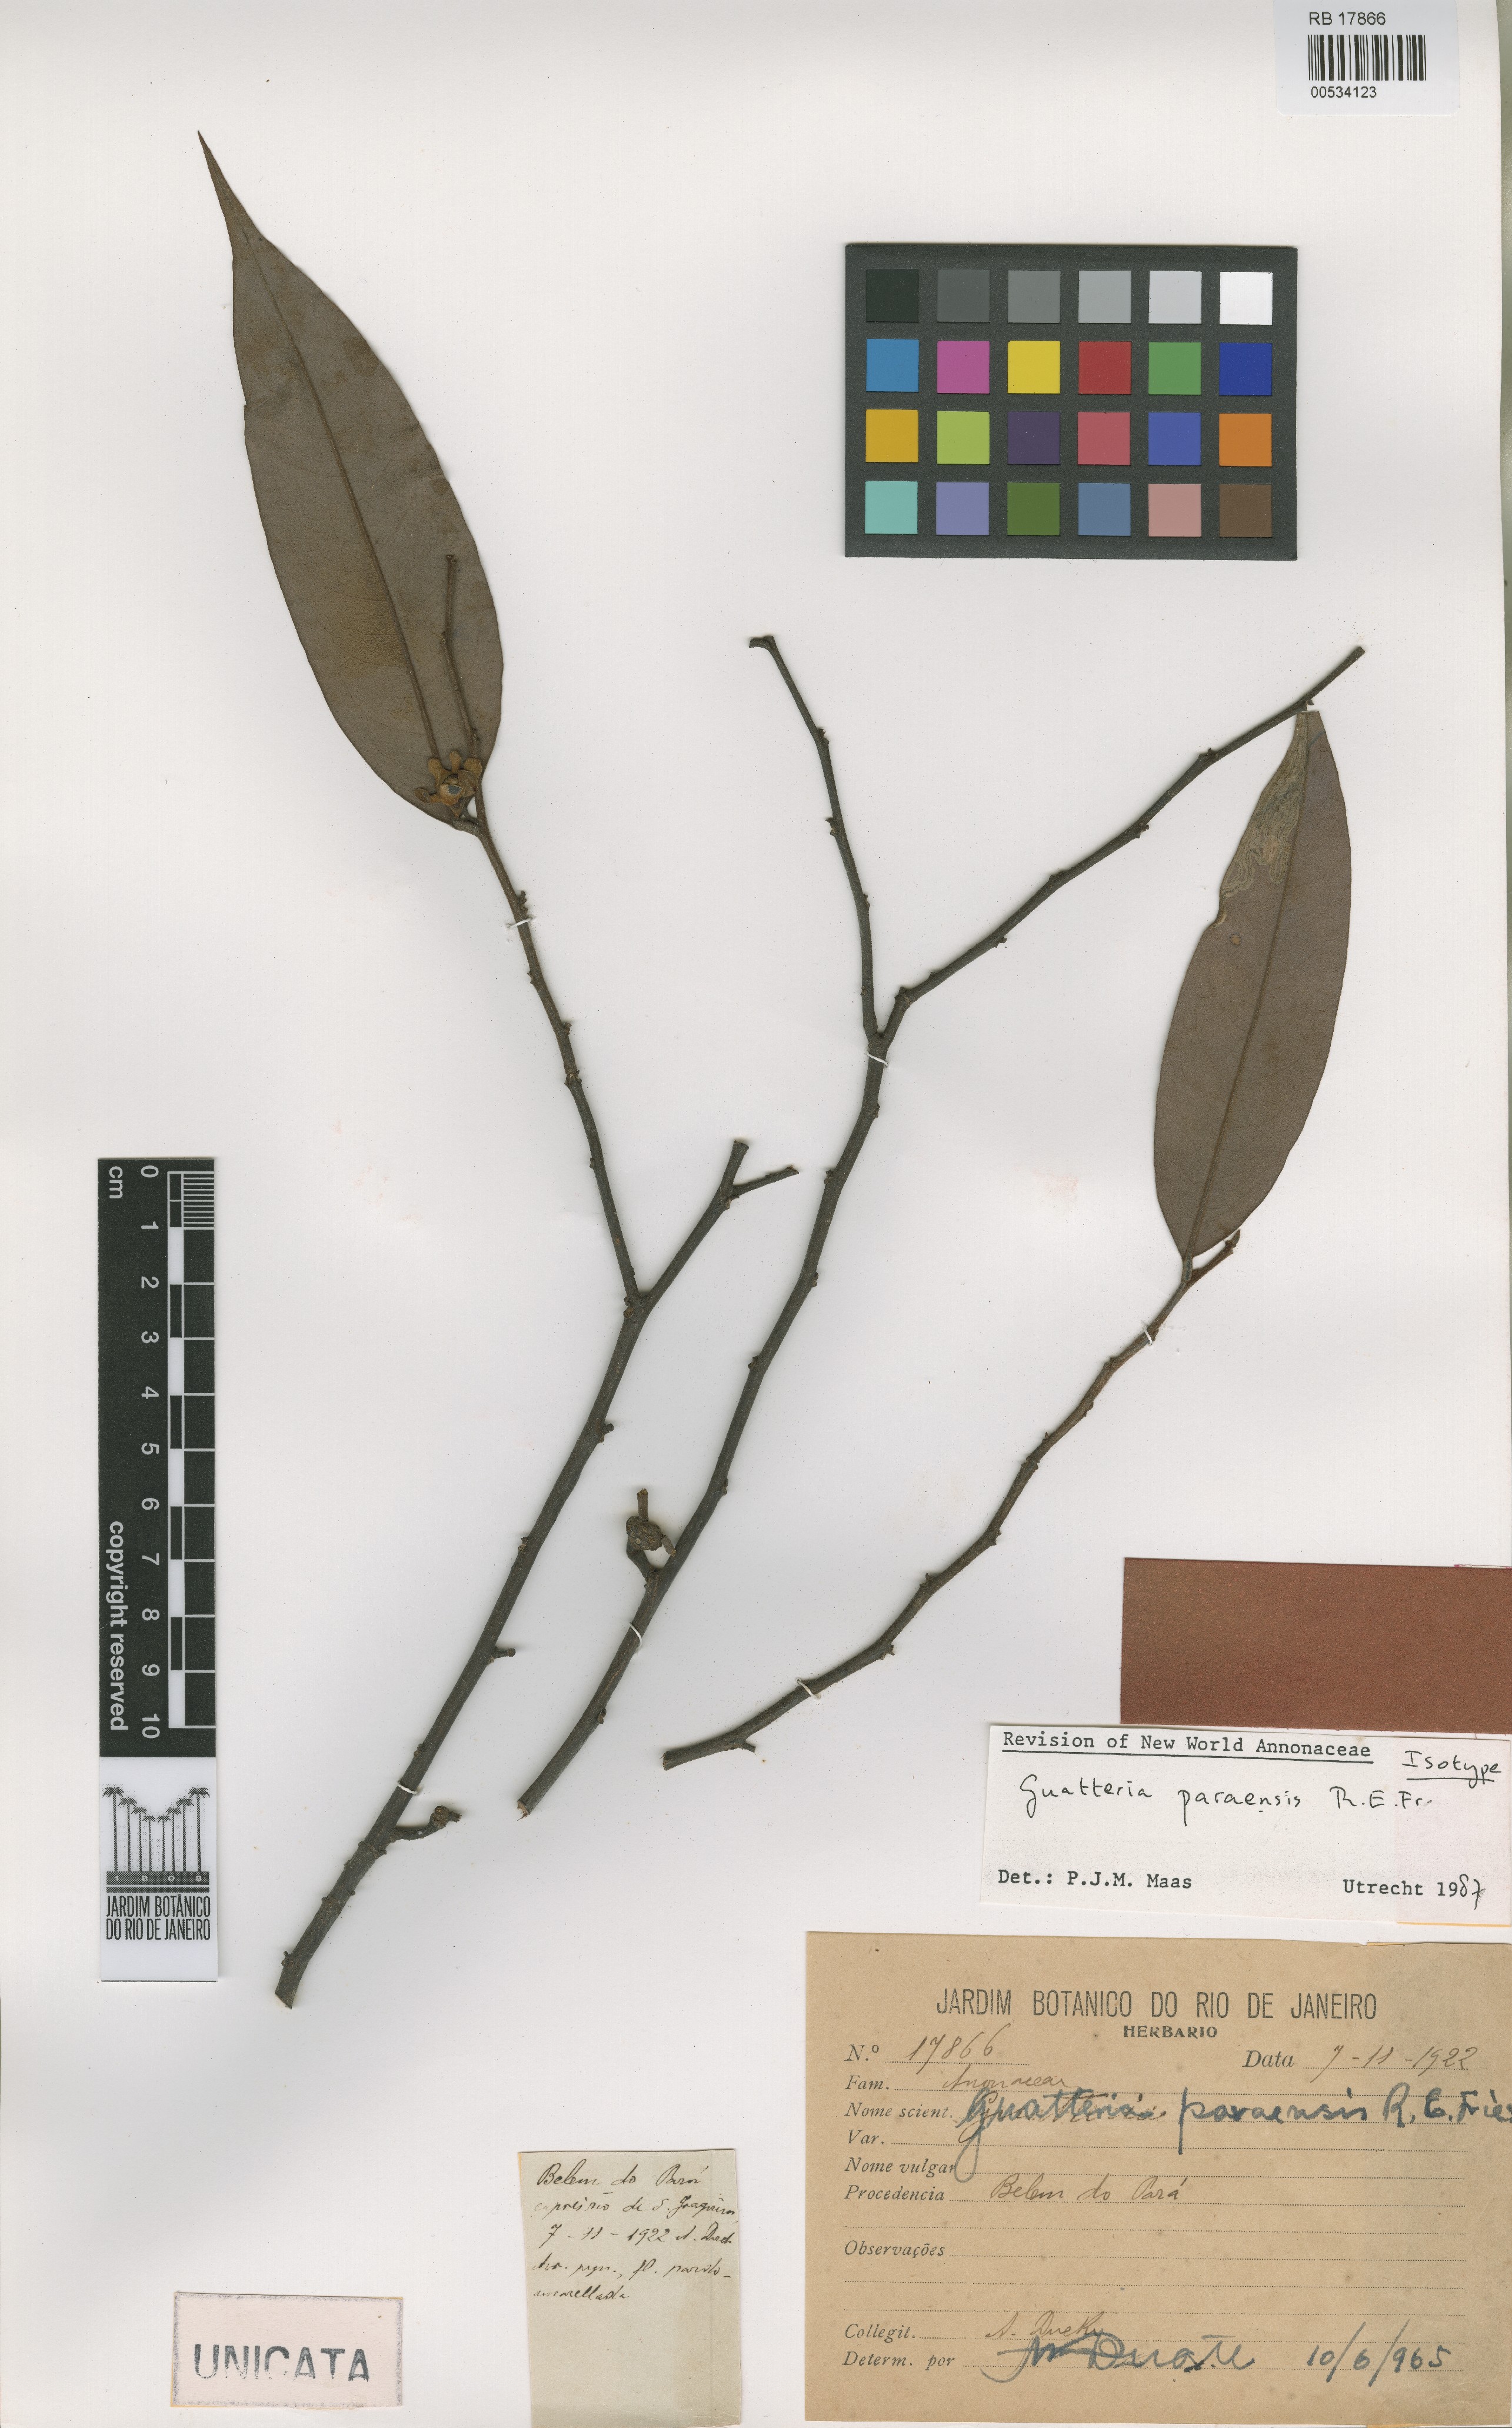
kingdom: Plantae
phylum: Tracheophyta
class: Magnoliopsida
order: Magnoliales
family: Annonaceae
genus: Guatteria
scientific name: Guatteria paraensis
